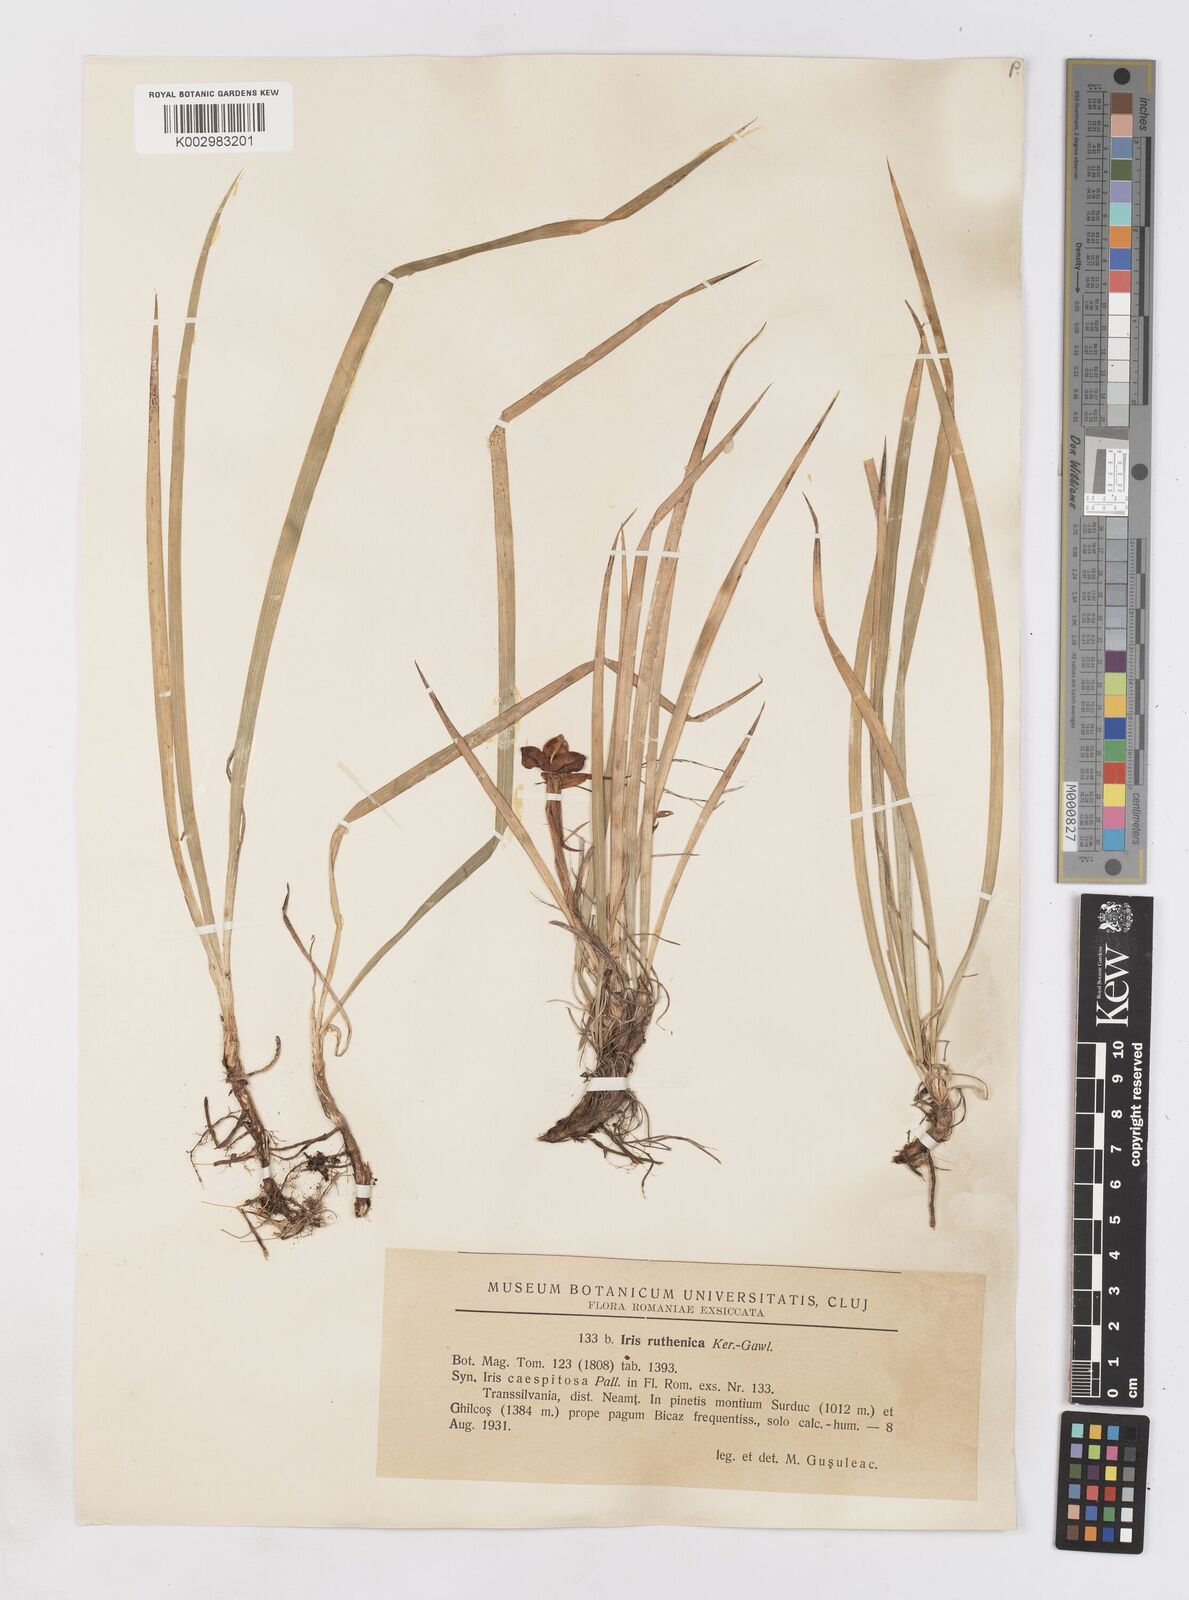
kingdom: Plantae
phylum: Tracheophyta
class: Liliopsida
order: Asparagales
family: Iridaceae
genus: Iris
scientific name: Iris ruthenica
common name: Purple-bract iris
